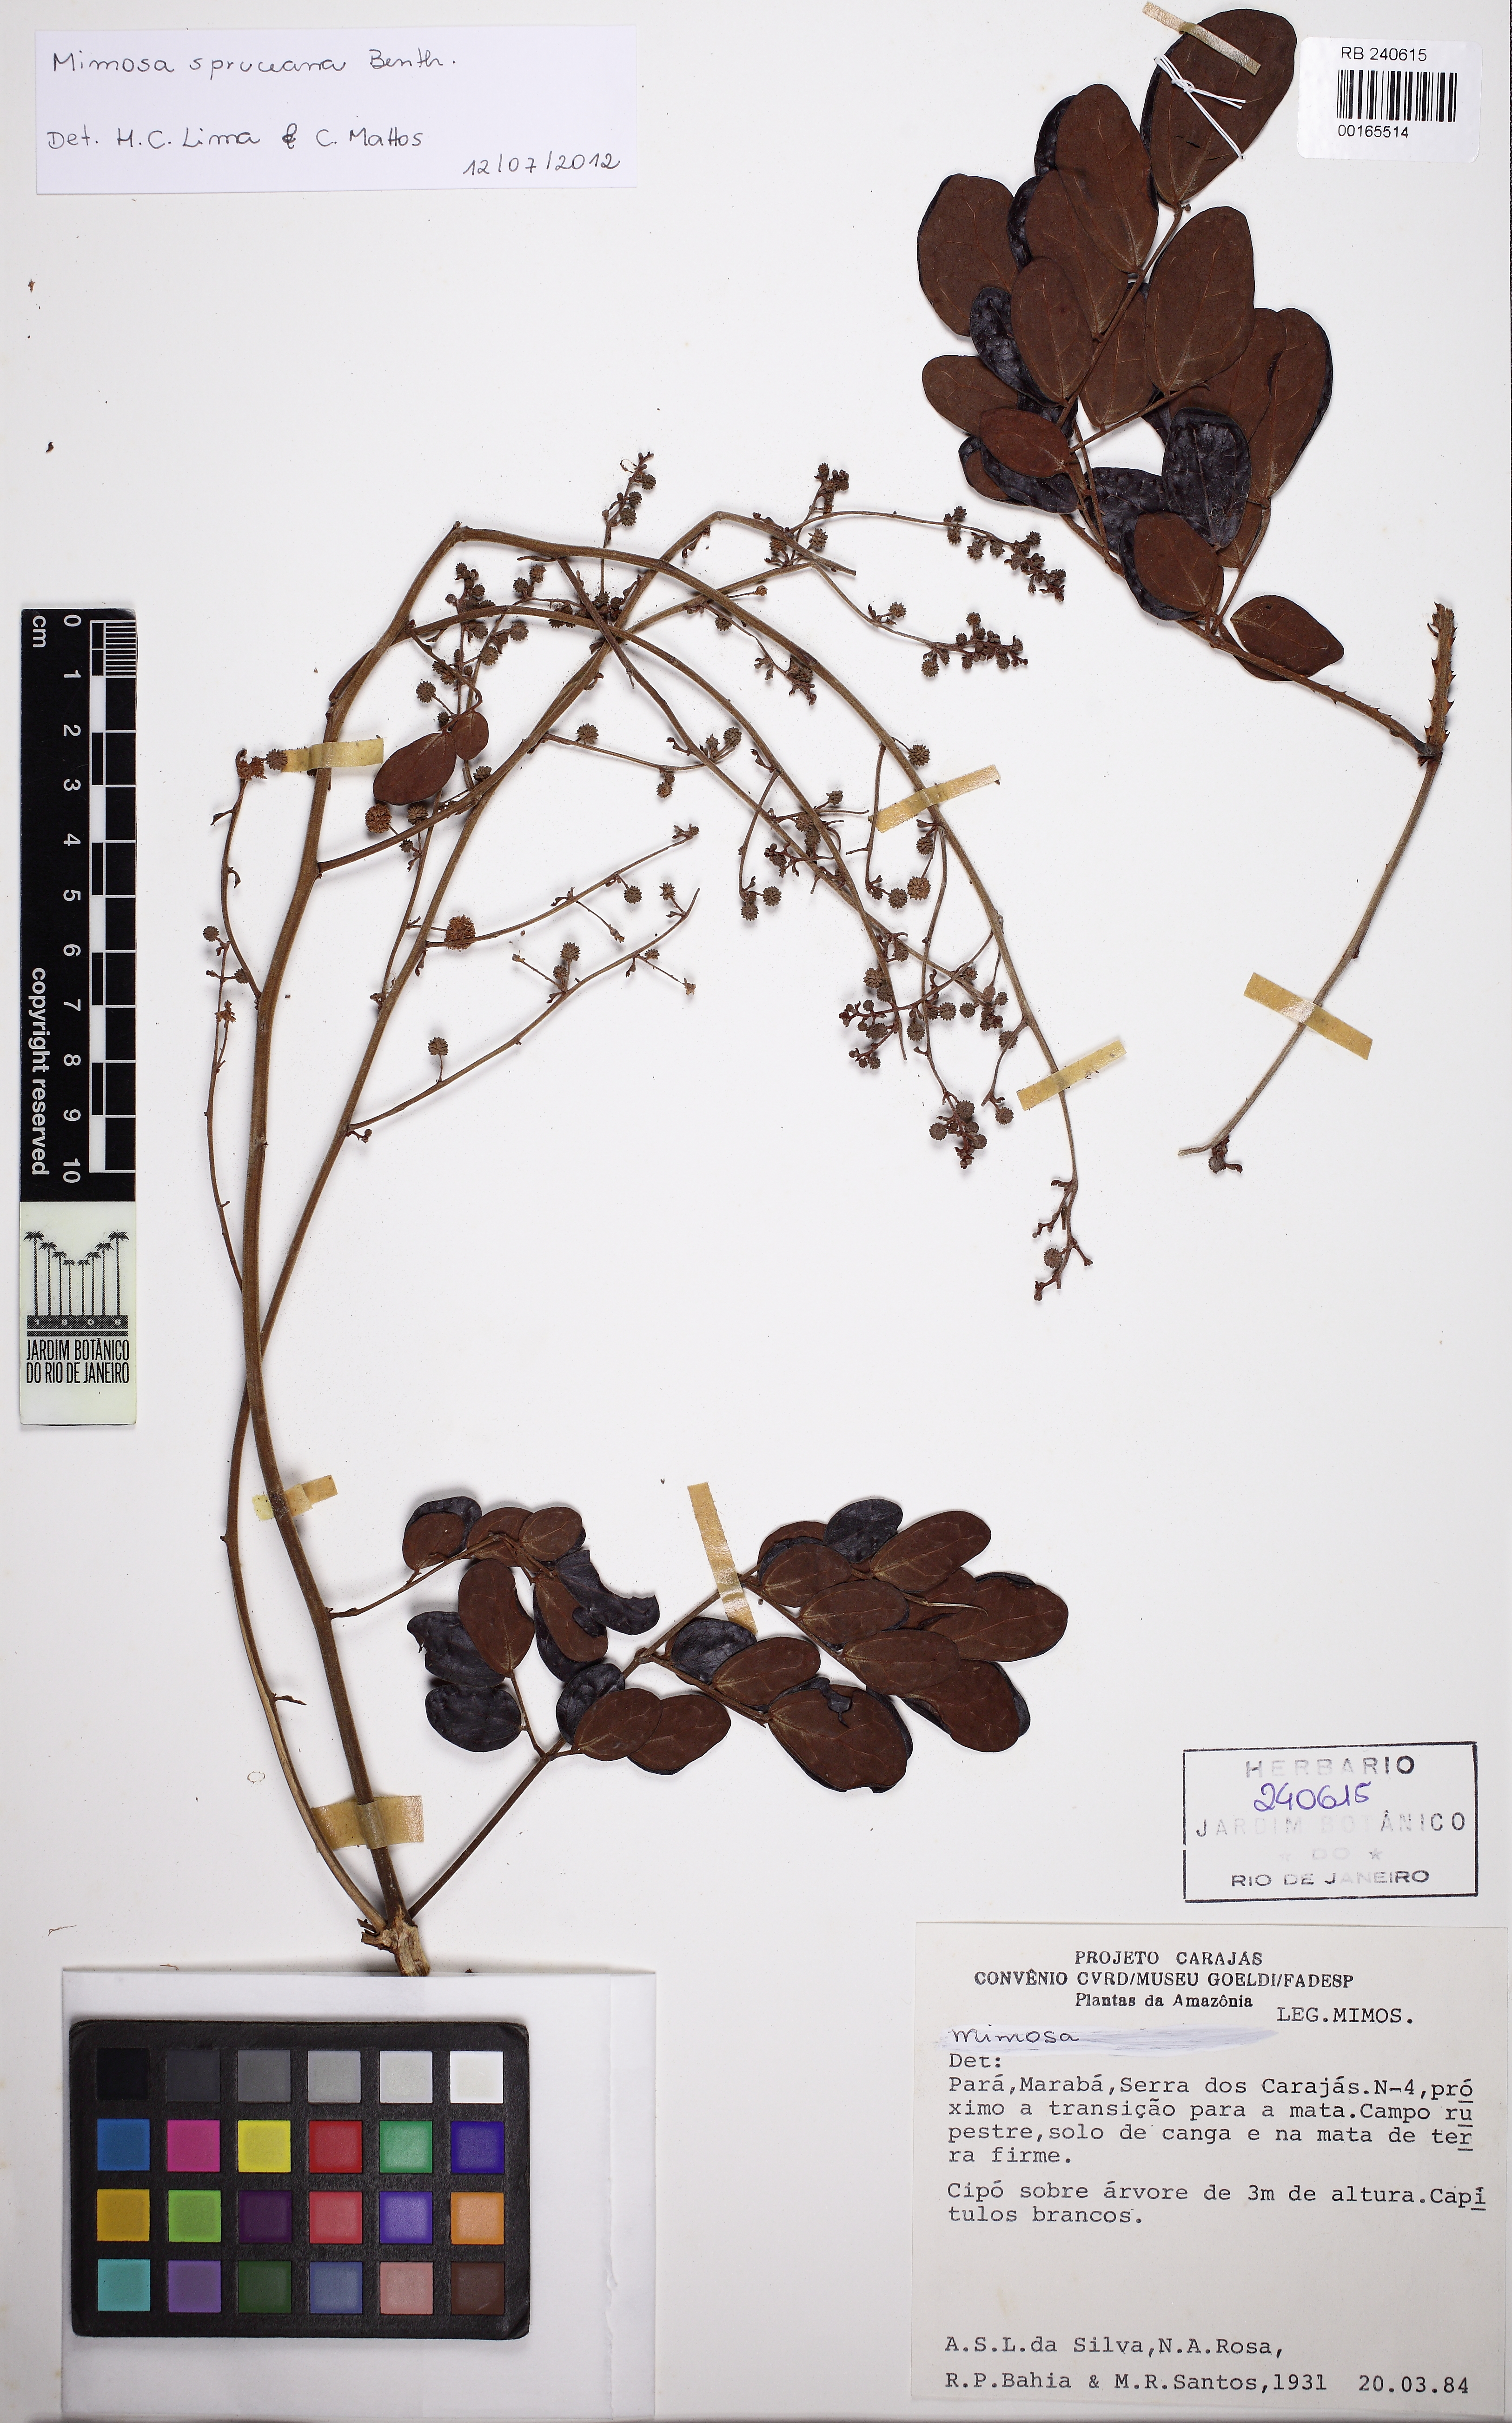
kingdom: Plantae
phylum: Tracheophyta
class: Magnoliopsida
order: Fabales
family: Fabaceae
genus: Mimosa
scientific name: Mimosa guilandinae
